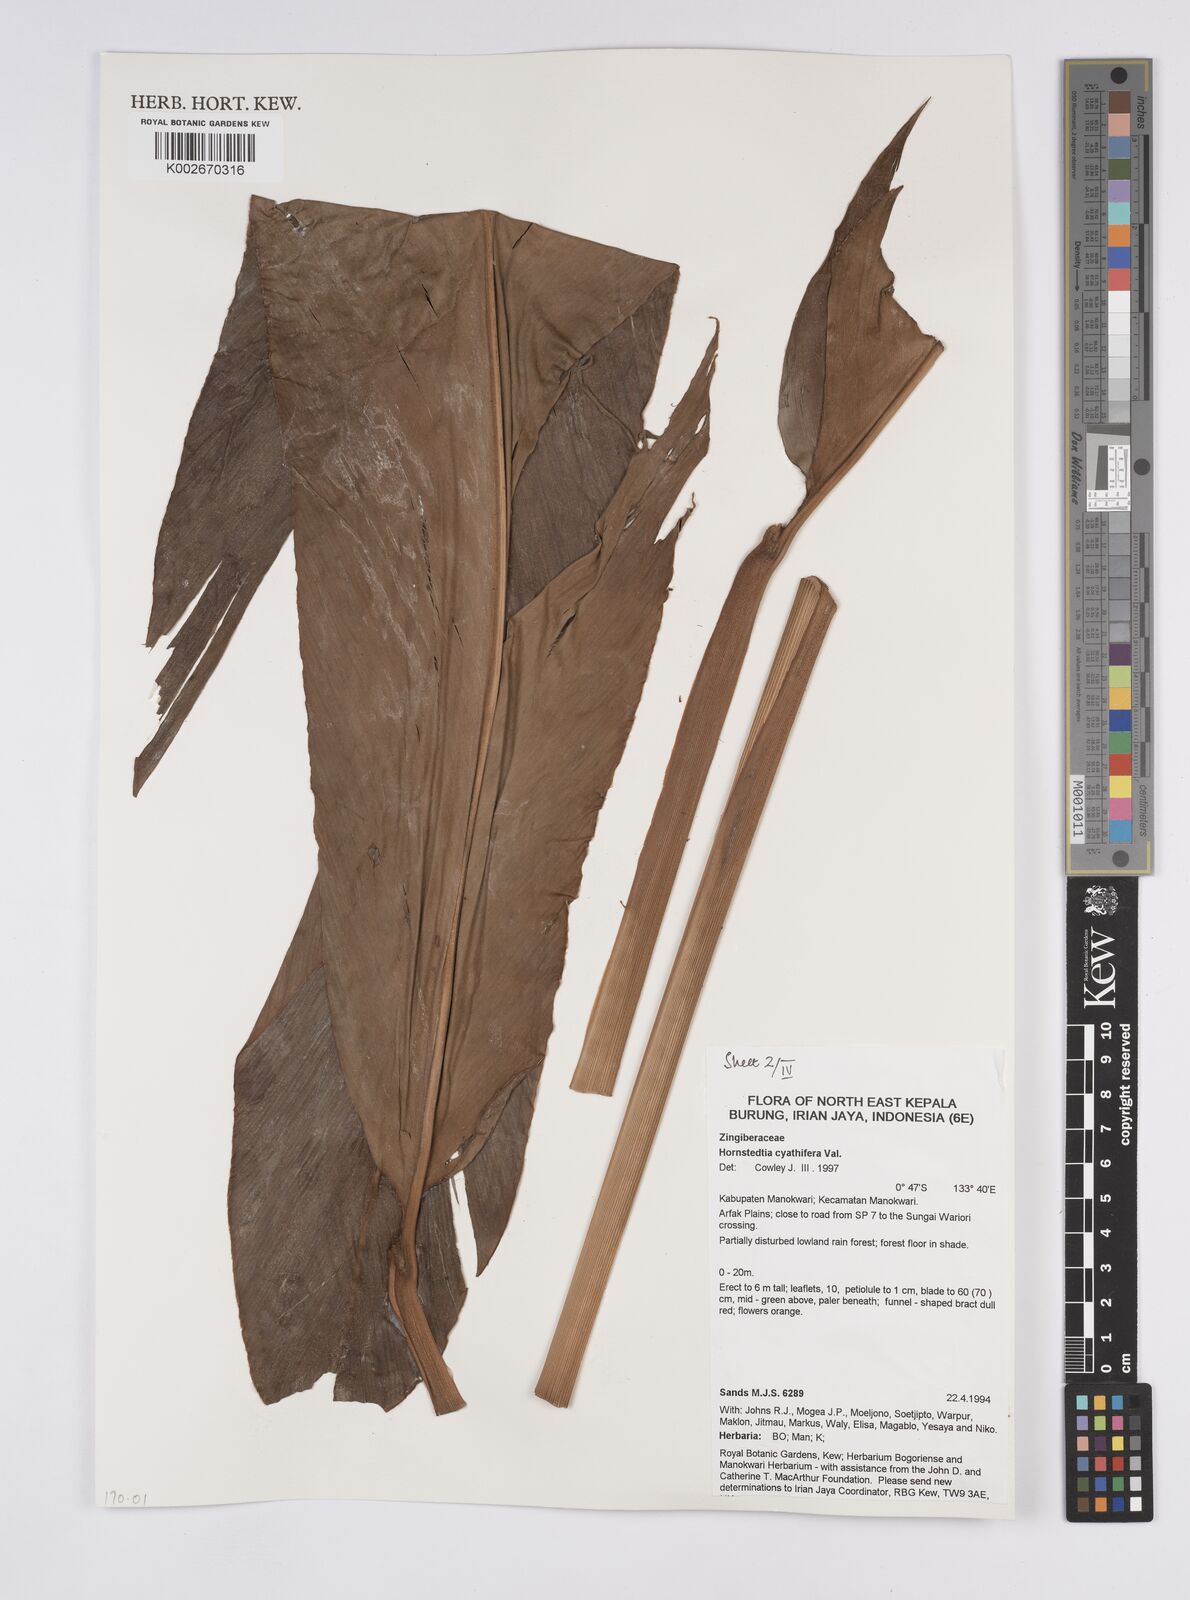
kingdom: Plantae
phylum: Tracheophyta
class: Liliopsida
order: Zingiberales
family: Zingiberaceae
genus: Hornstedtia
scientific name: Hornstedtia cyathifera
